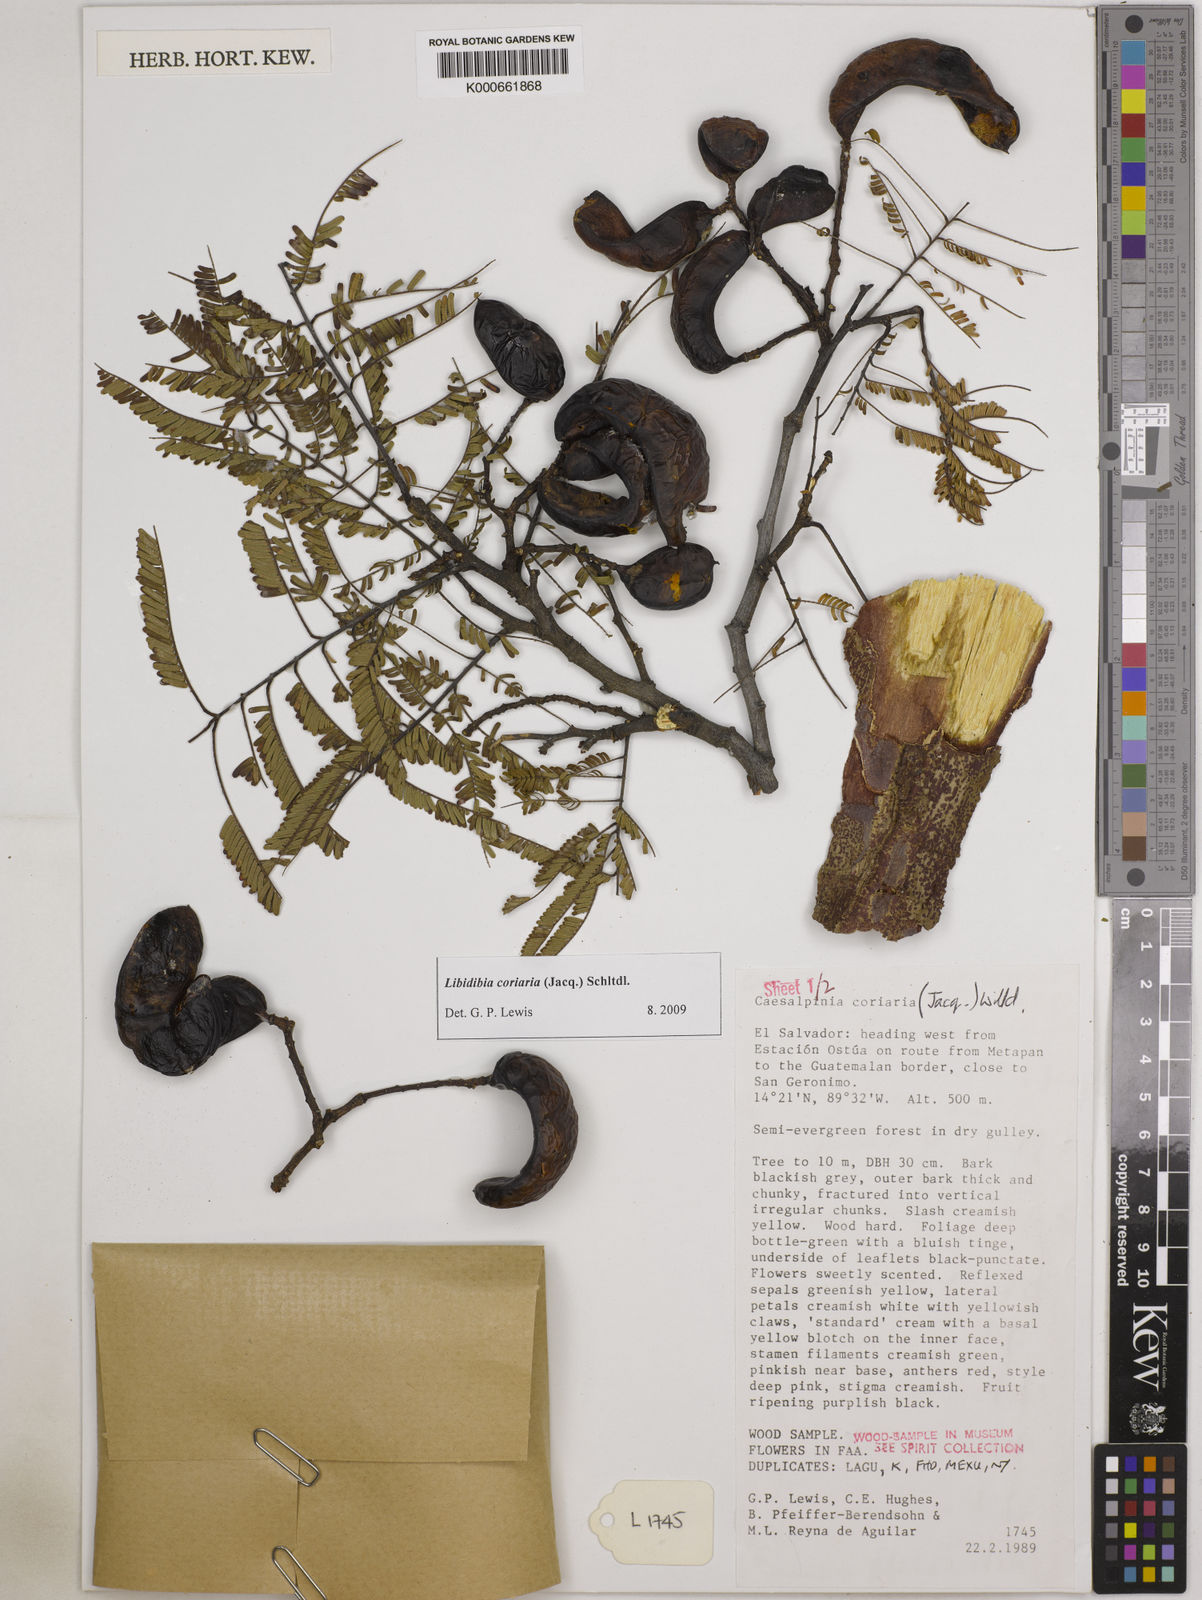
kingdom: Plantae
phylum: Tracheophyta
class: Magnoliopsida
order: Fabales
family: Fabaceae
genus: Libidibia
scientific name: Libidibia coriaria
